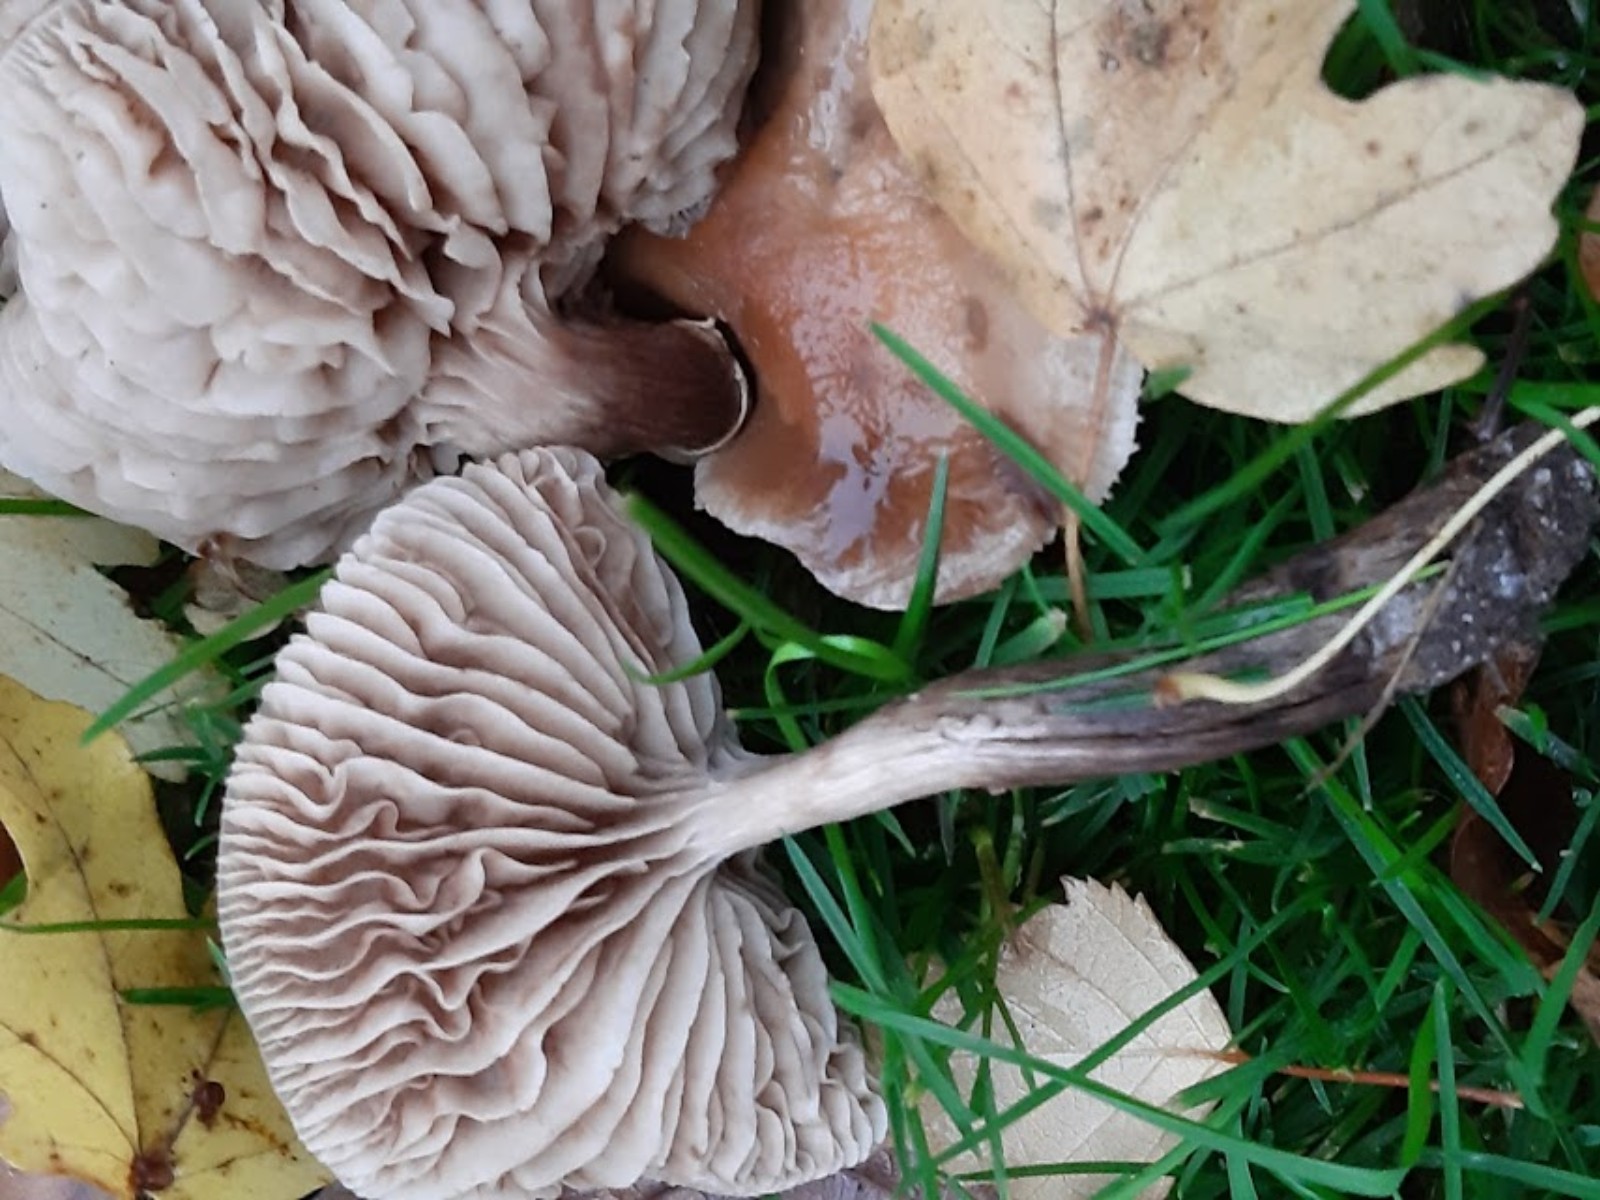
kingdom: Fungi
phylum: Basidiomycota
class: Agaricomycetes
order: Agaricales
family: Tubariaceae
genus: Cyclocybe
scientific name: Cyclocybe erebia
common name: mørk agerhat
